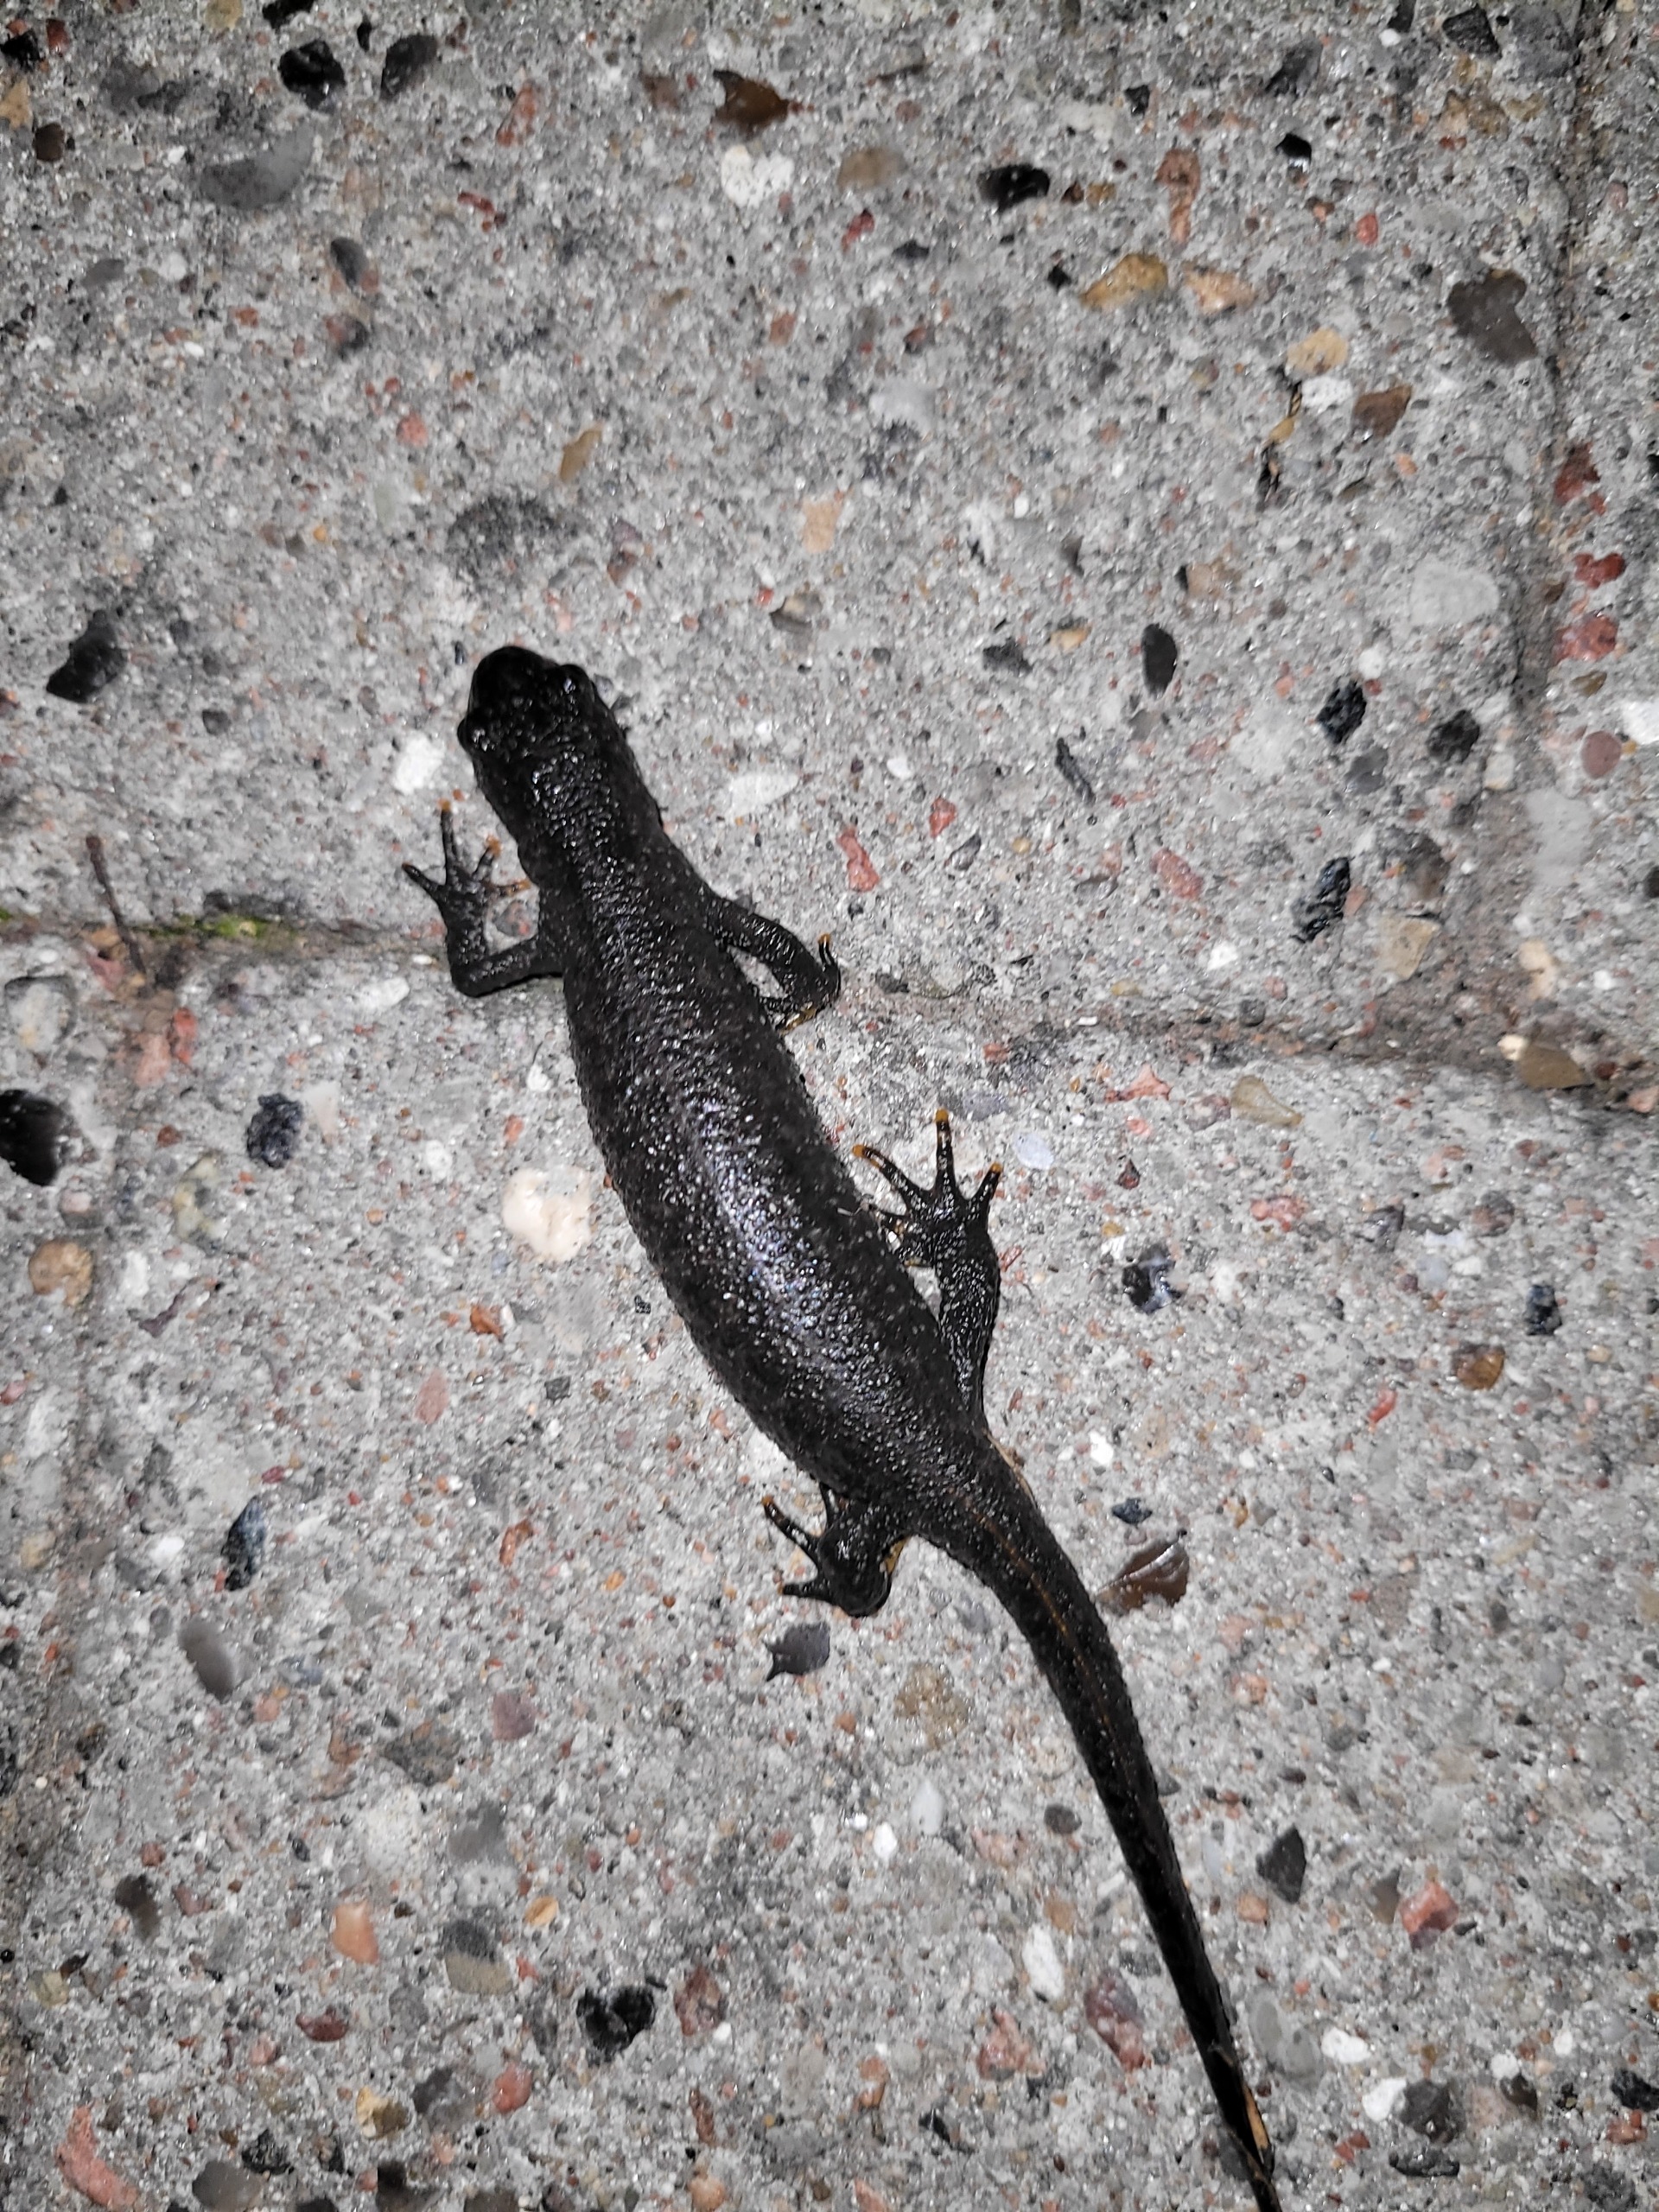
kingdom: Animalia
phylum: Chordata
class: Amphibia
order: Caudata
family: Salamandridae
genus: Triturus
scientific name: Triturus cristatus
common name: Stor vandsalamander
